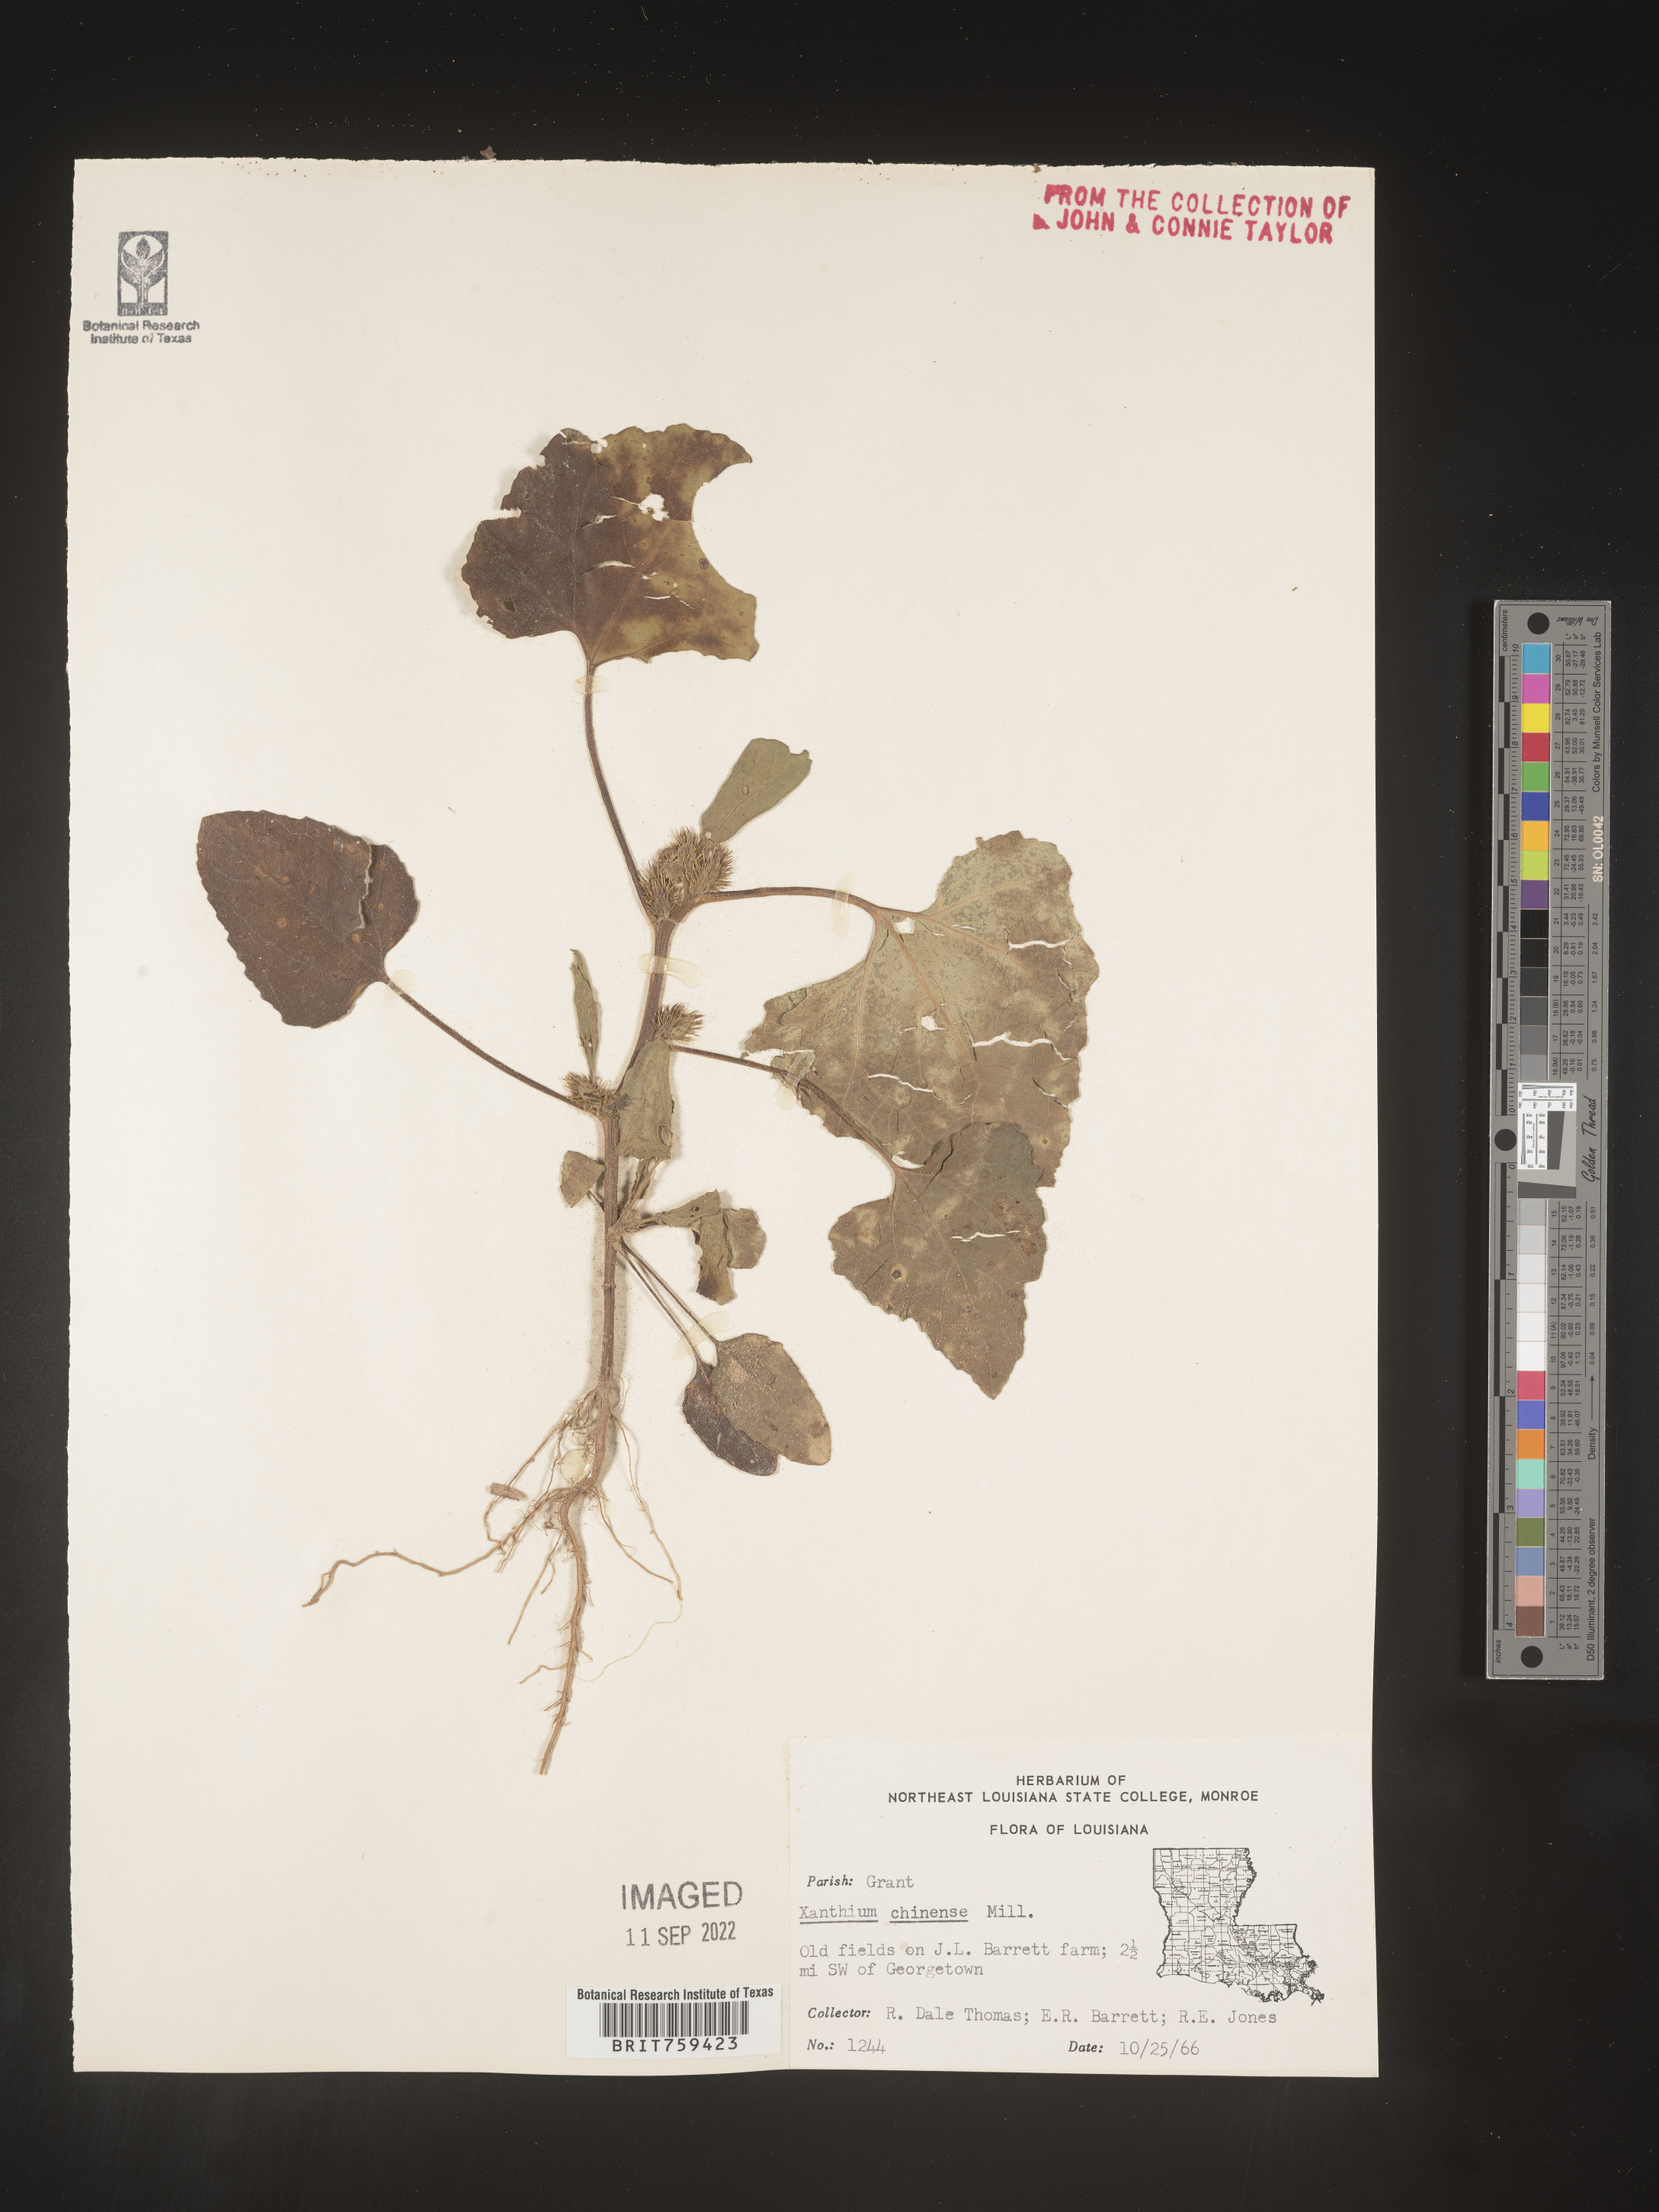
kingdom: Plantae
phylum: Tracheophyta
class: Magnoliopsida
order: Asterales
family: Asteraceae
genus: Xanthium
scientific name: Xanthium occidentale
